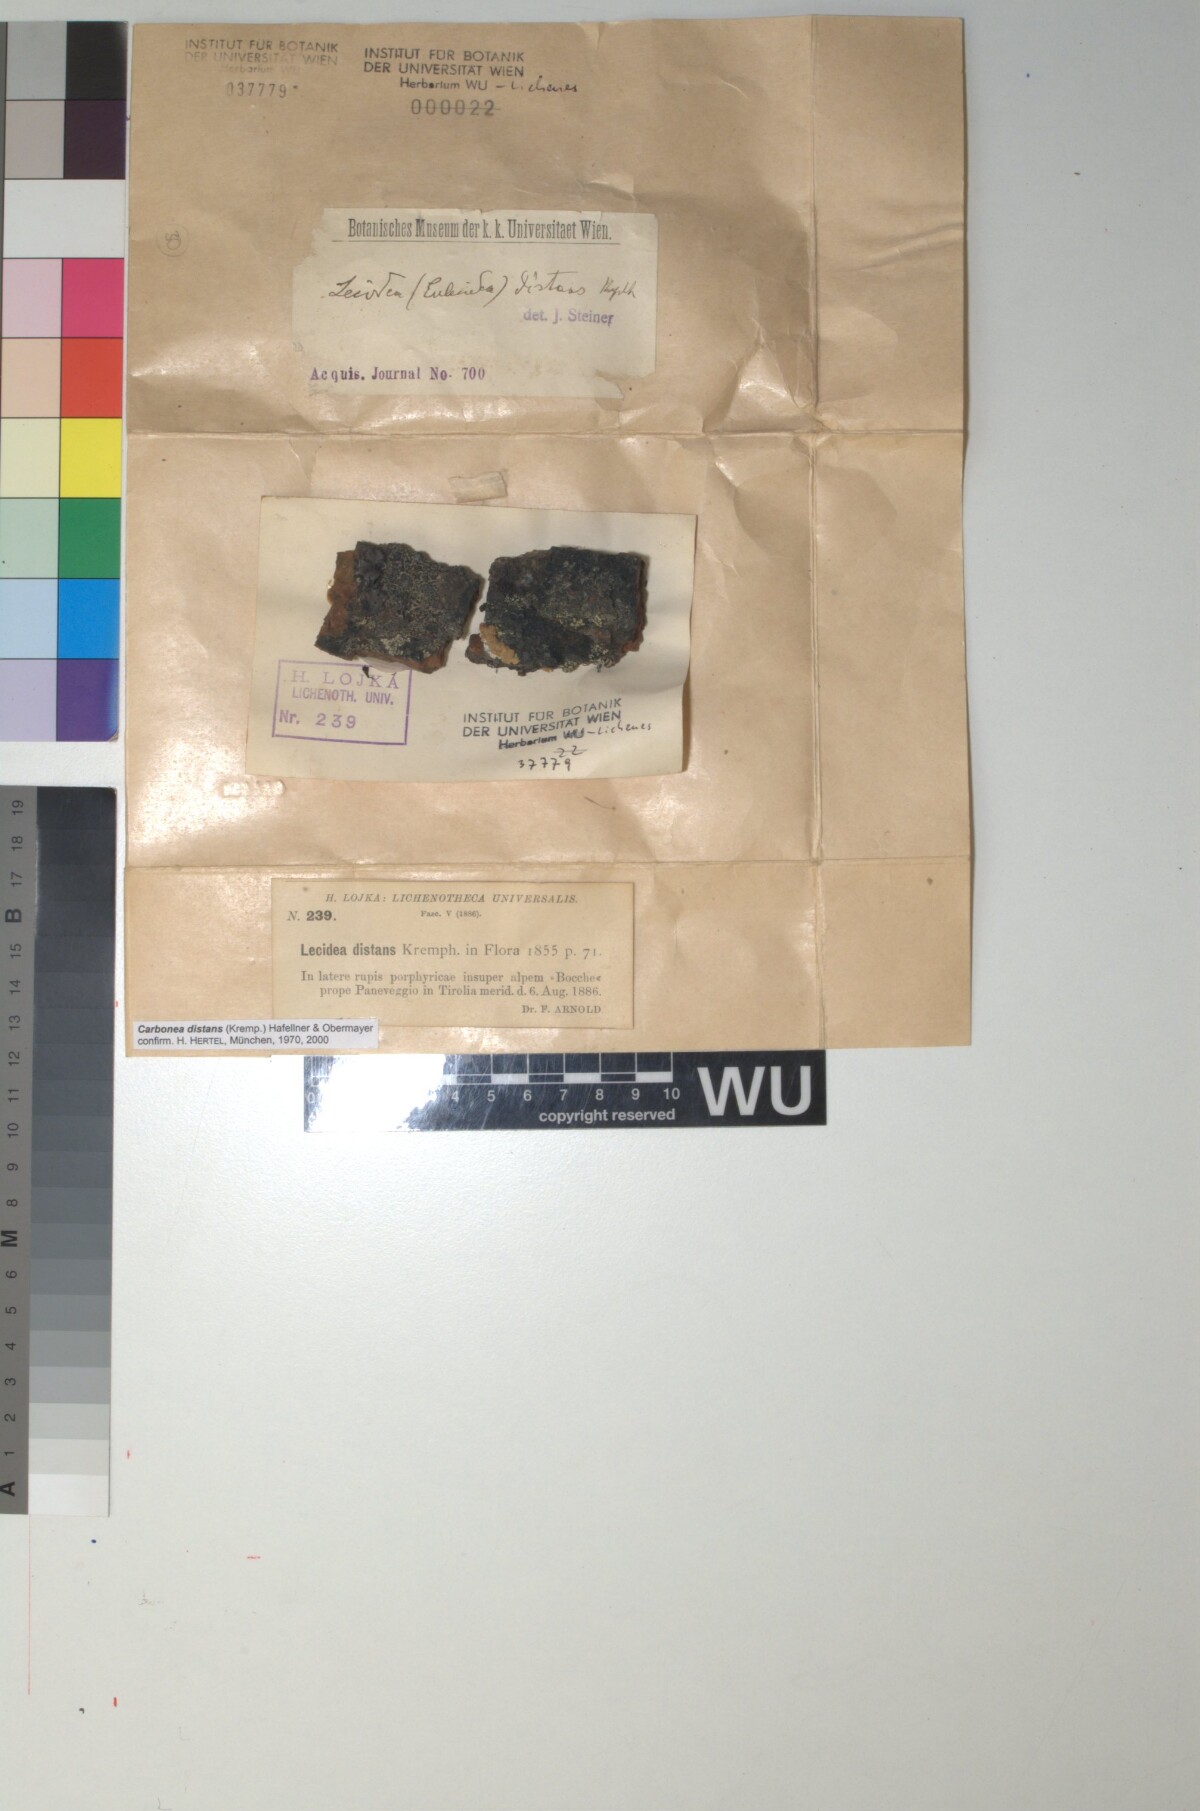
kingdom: Fungi
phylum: Ascomycota
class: Lecanoromycetes
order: Lecanorales
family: Lecanoraceae
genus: Lecidella
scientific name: Lecidella pulveracea
